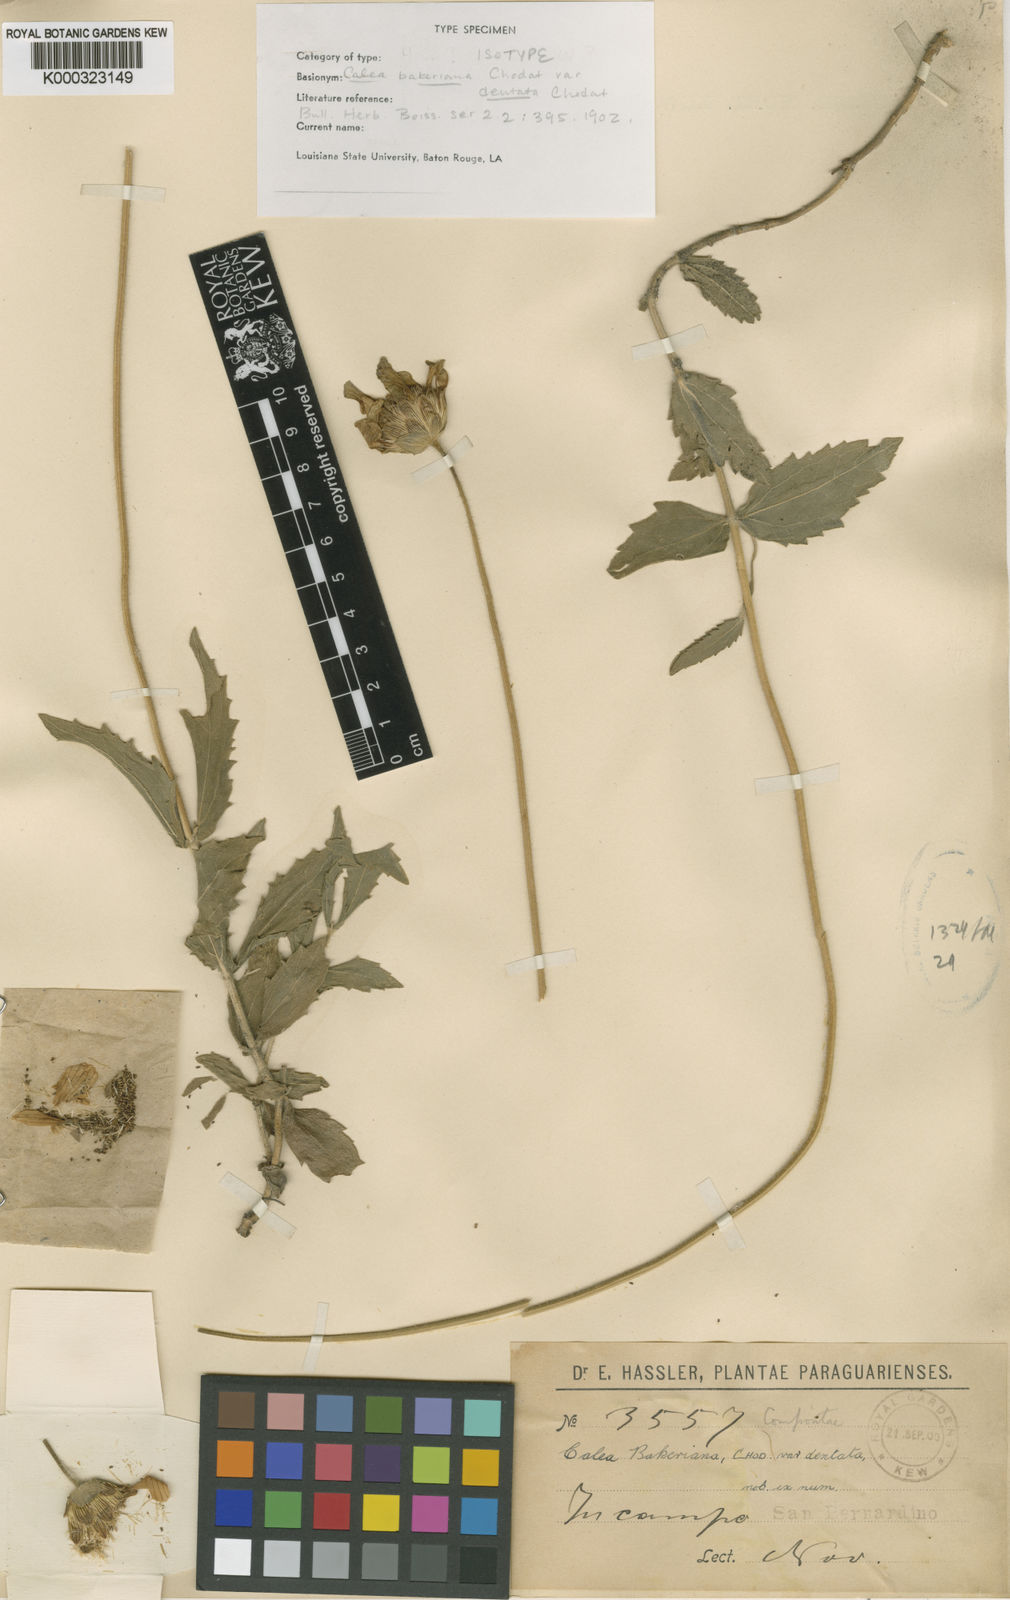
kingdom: Plantae
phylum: Tracheophyta
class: Magnoliopsida
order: Asterales
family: Asteraceae
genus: Calea
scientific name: Calea bakeriana
